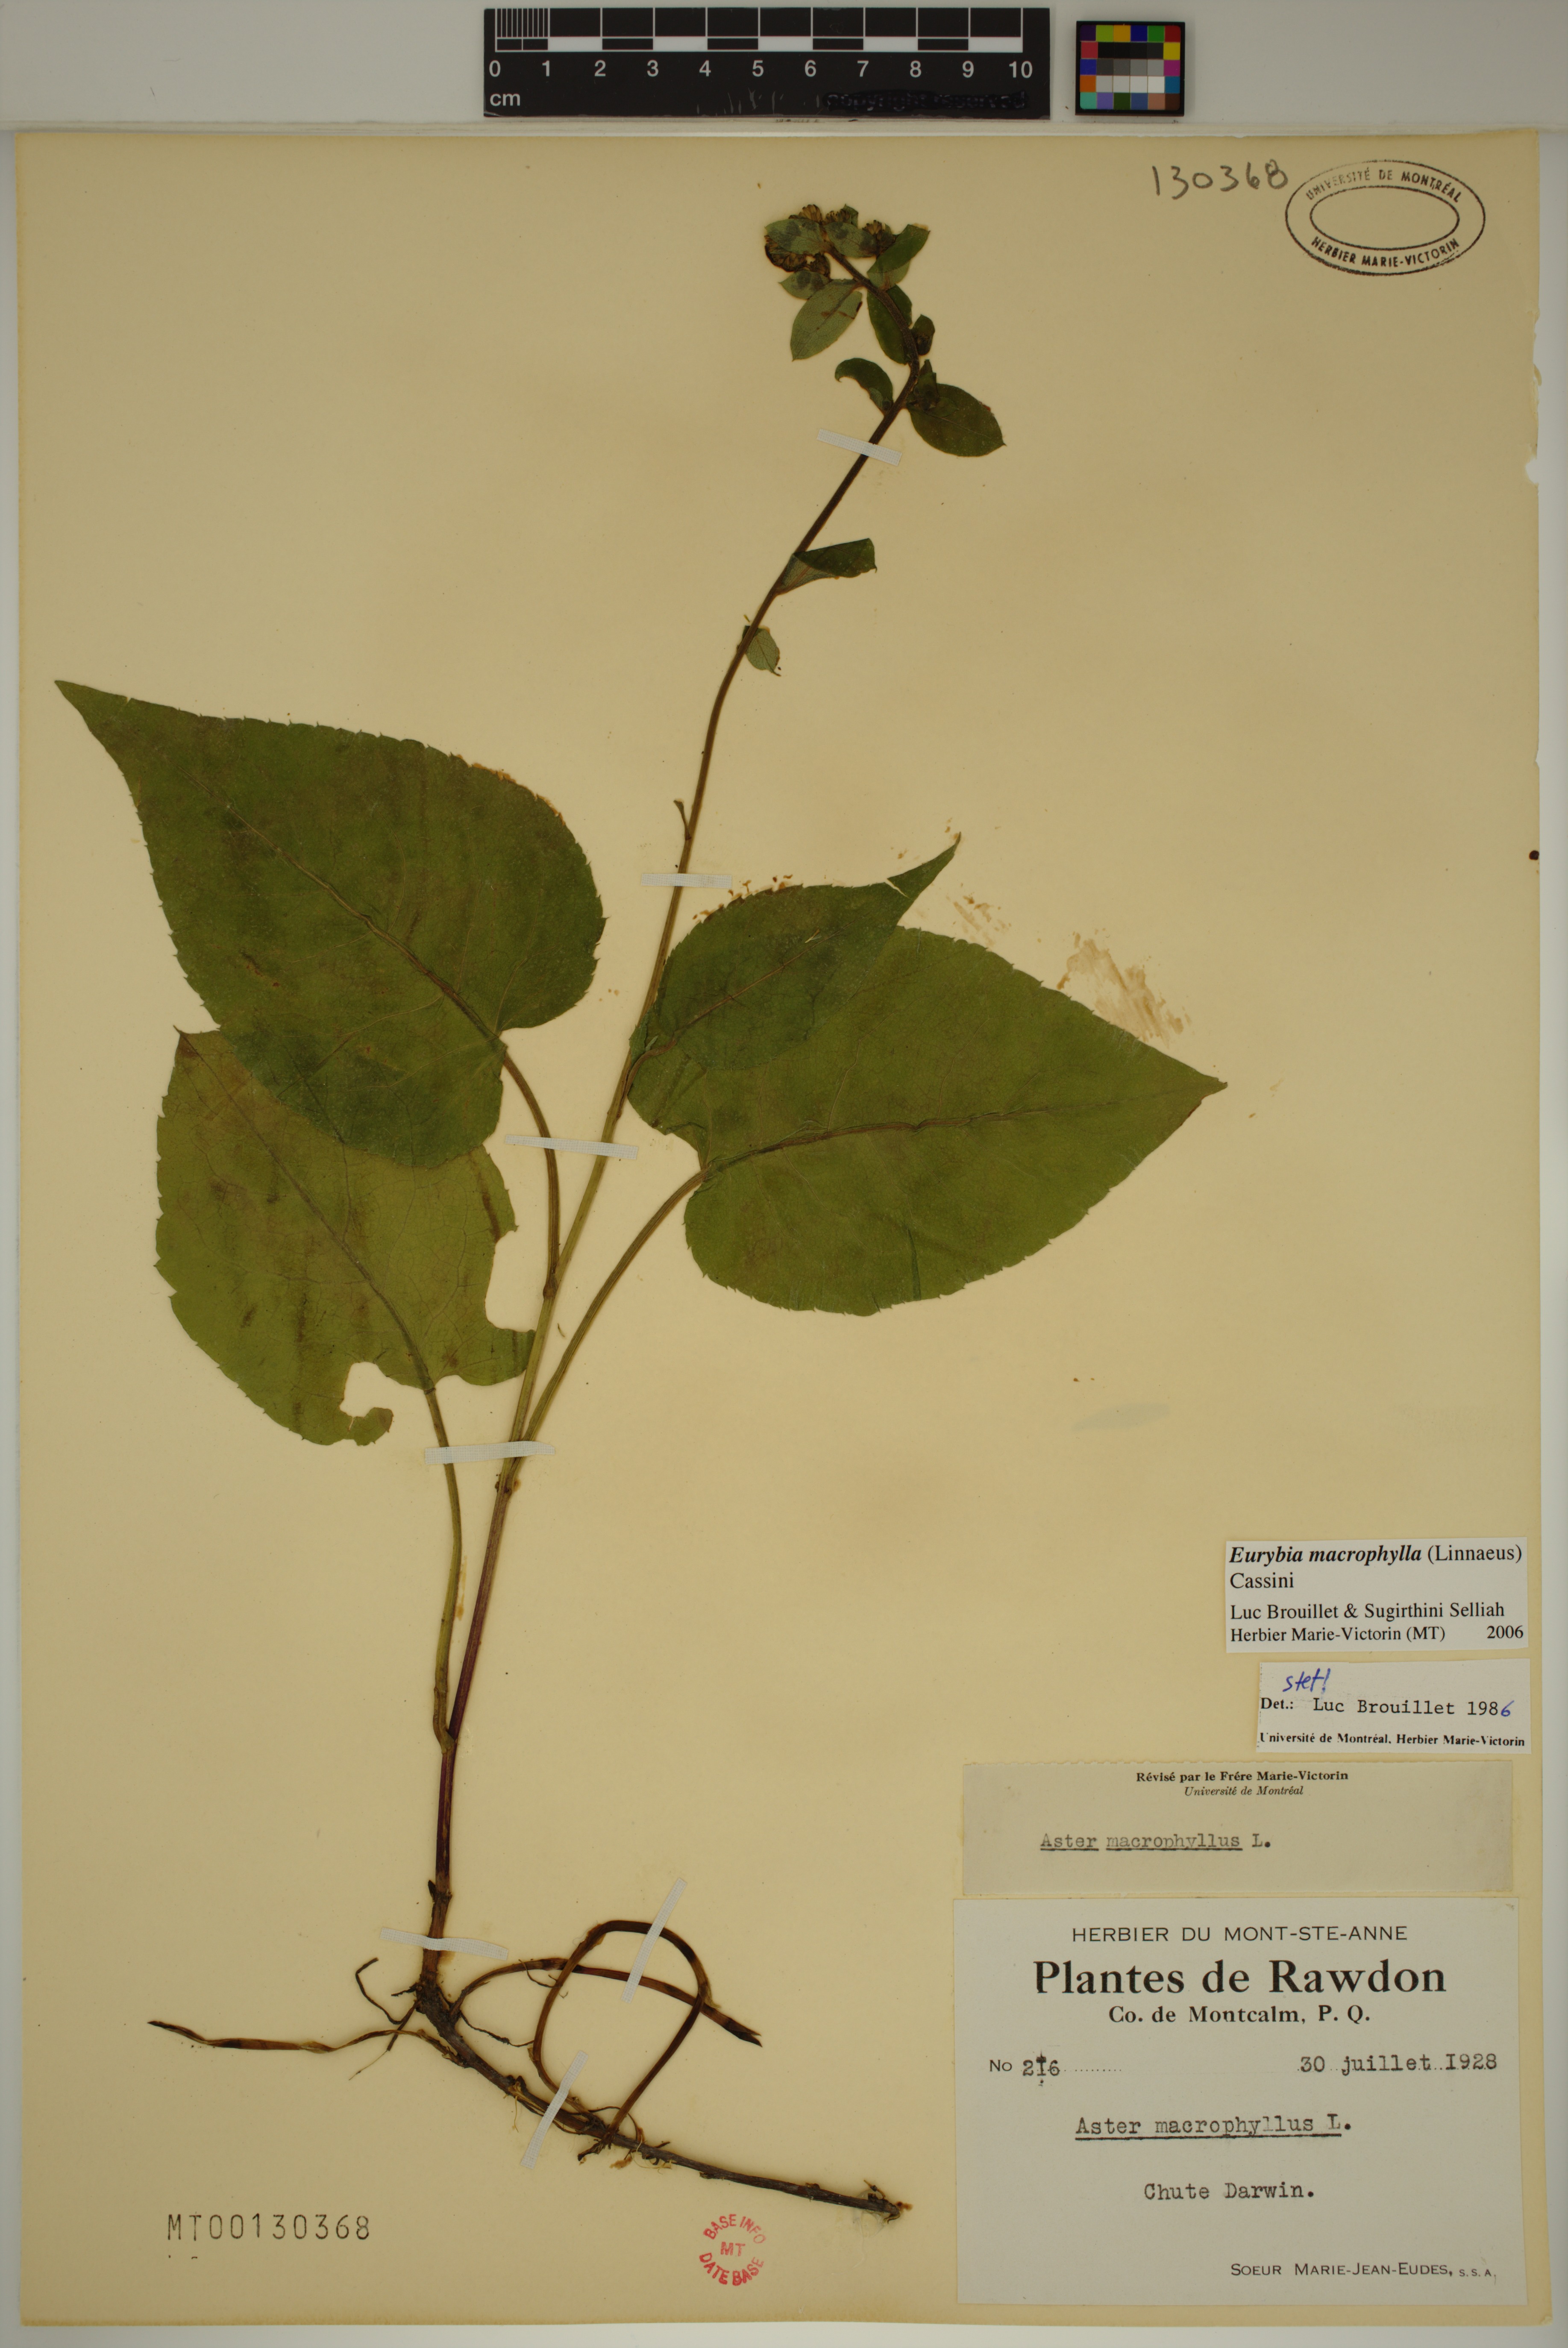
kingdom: Plantae
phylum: Tracheophyta
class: Magnoliopsida
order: Asterales
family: Asteraceae
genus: Eurybia
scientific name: Eurybia macrophylla
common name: Big-leaved aster
